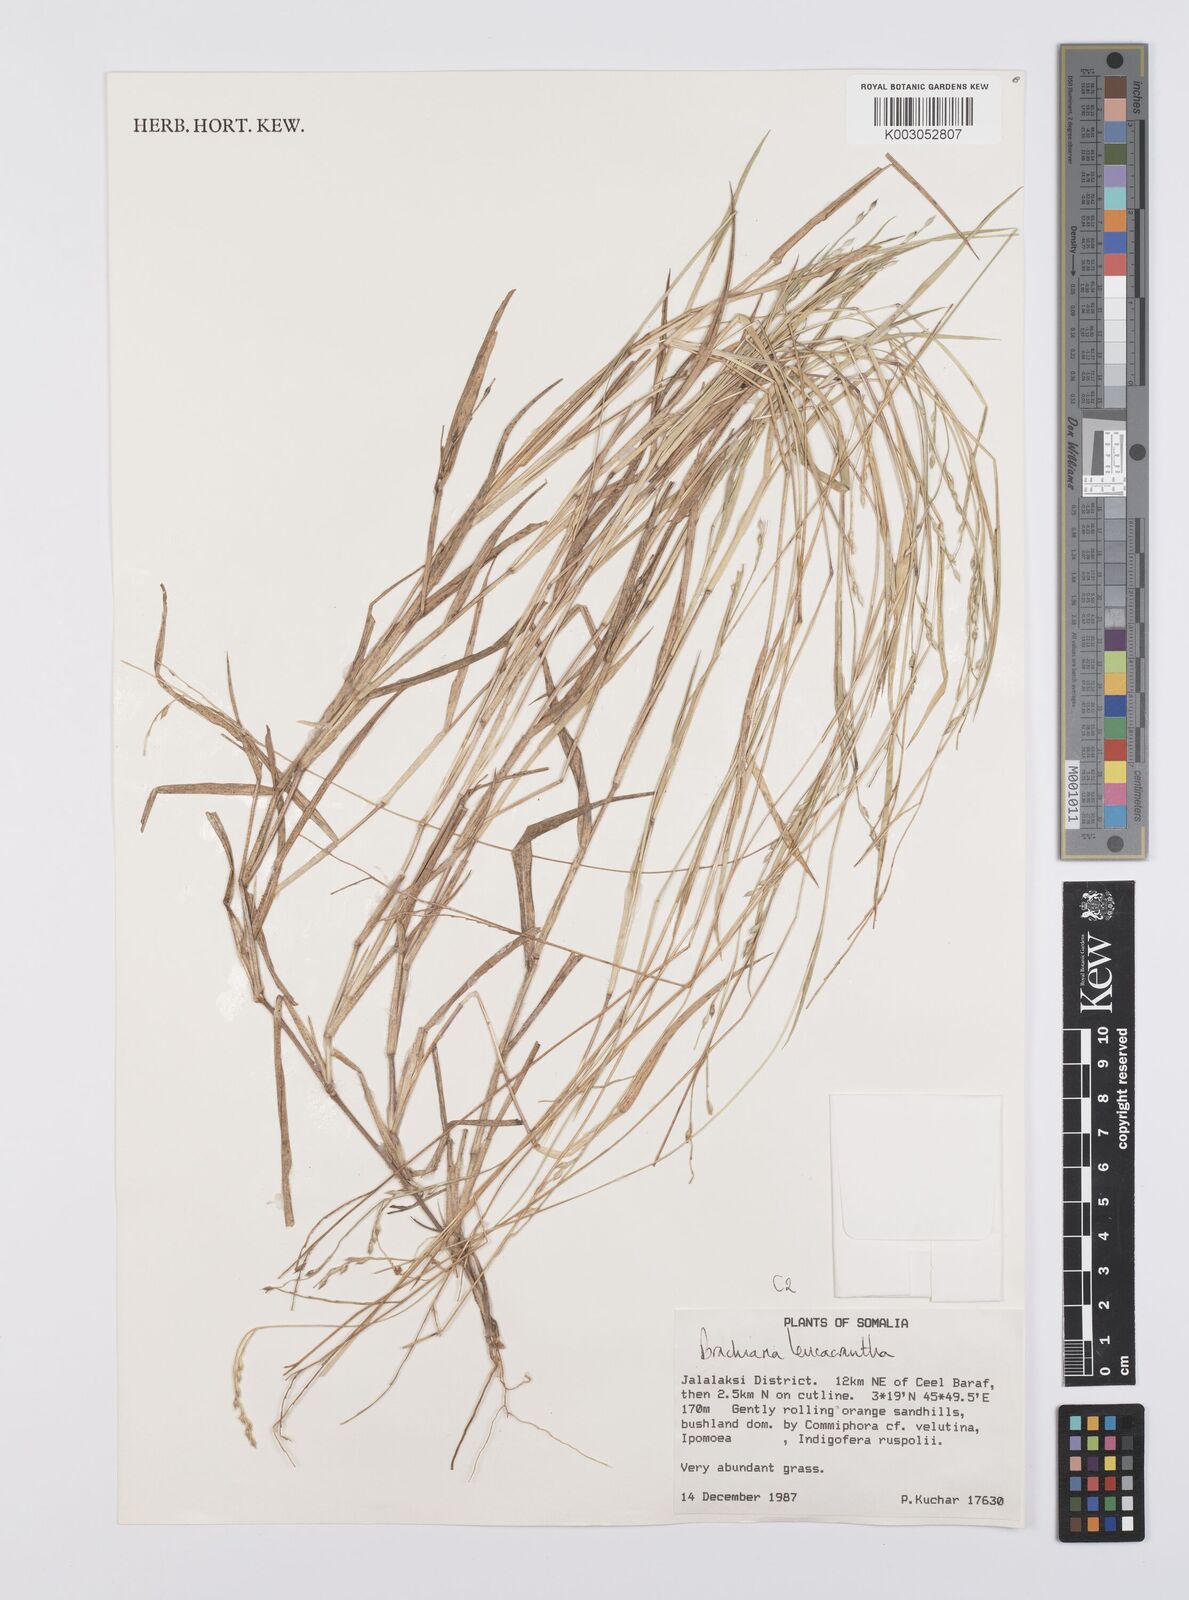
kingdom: Plantae
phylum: Tracheophyta
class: Liliopsida
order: Poales
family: Poaceae
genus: Urochloa
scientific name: Urochloa xantholeuca
